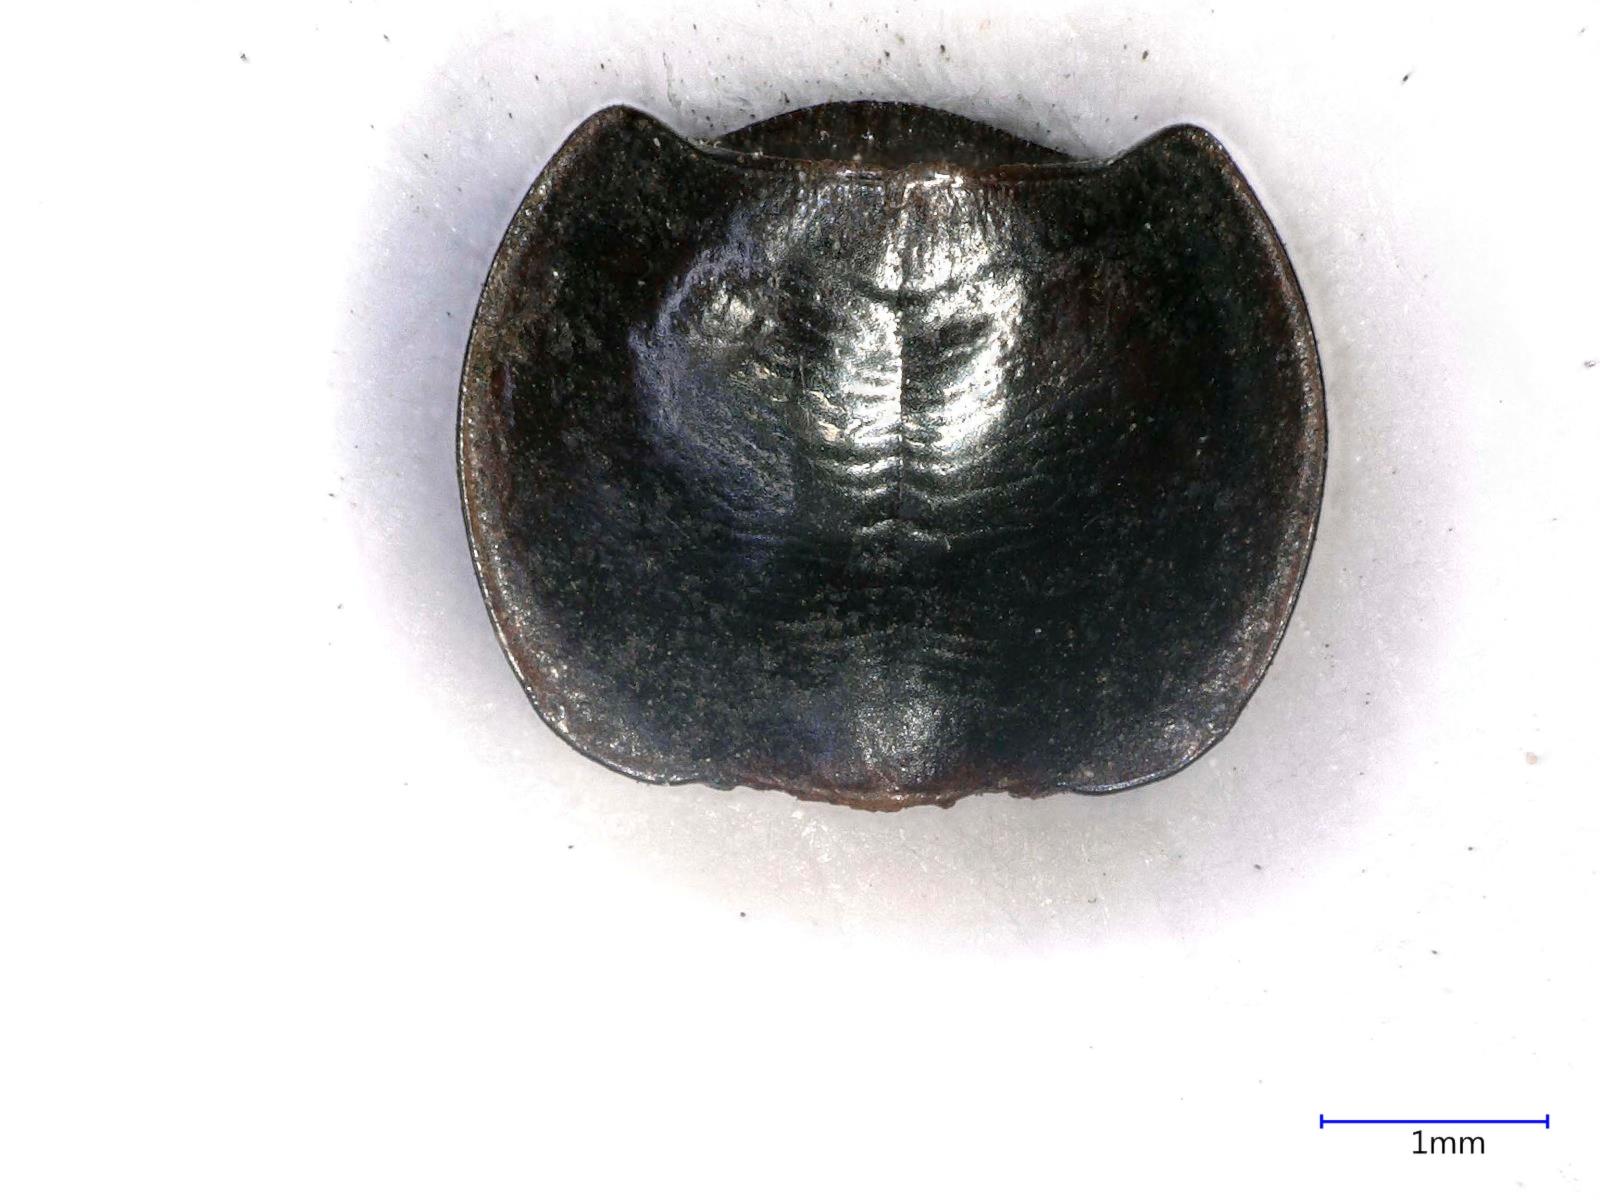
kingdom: Animalia
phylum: Arthropoda
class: Insecta
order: Coleoptera
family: Carabidae
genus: Tanystoma
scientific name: Tanystoma maculicolle
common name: Tule beetle
